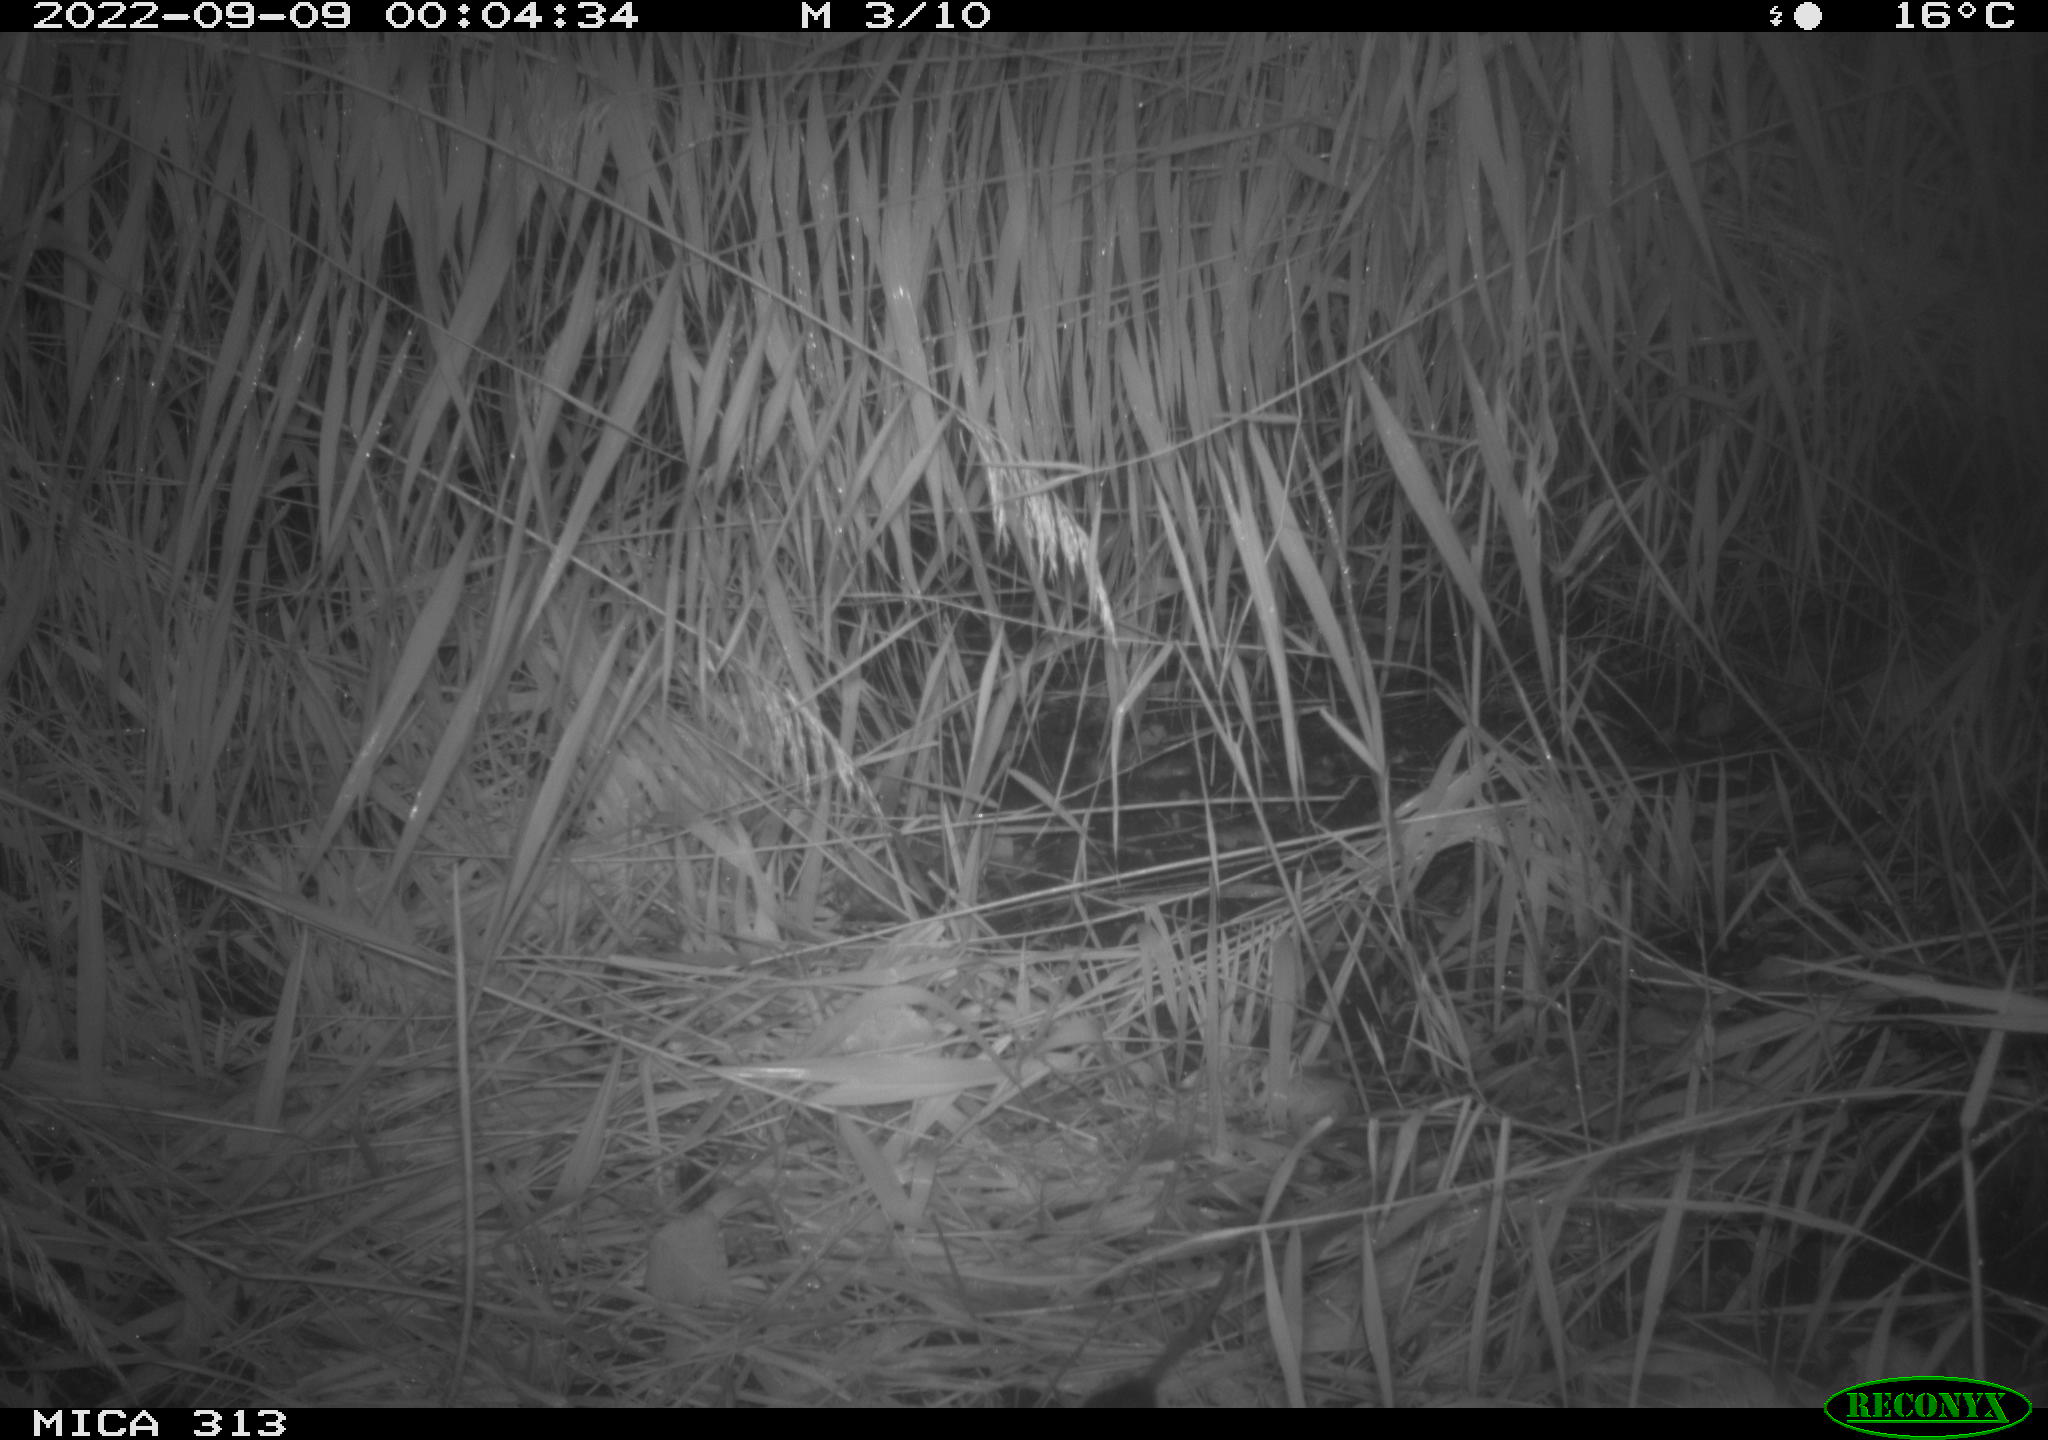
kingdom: Animalia
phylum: Chordata
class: Mammalia
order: Rodentia
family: Muridae
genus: Rattus
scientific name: Rattus norvegicus
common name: Brown rat
